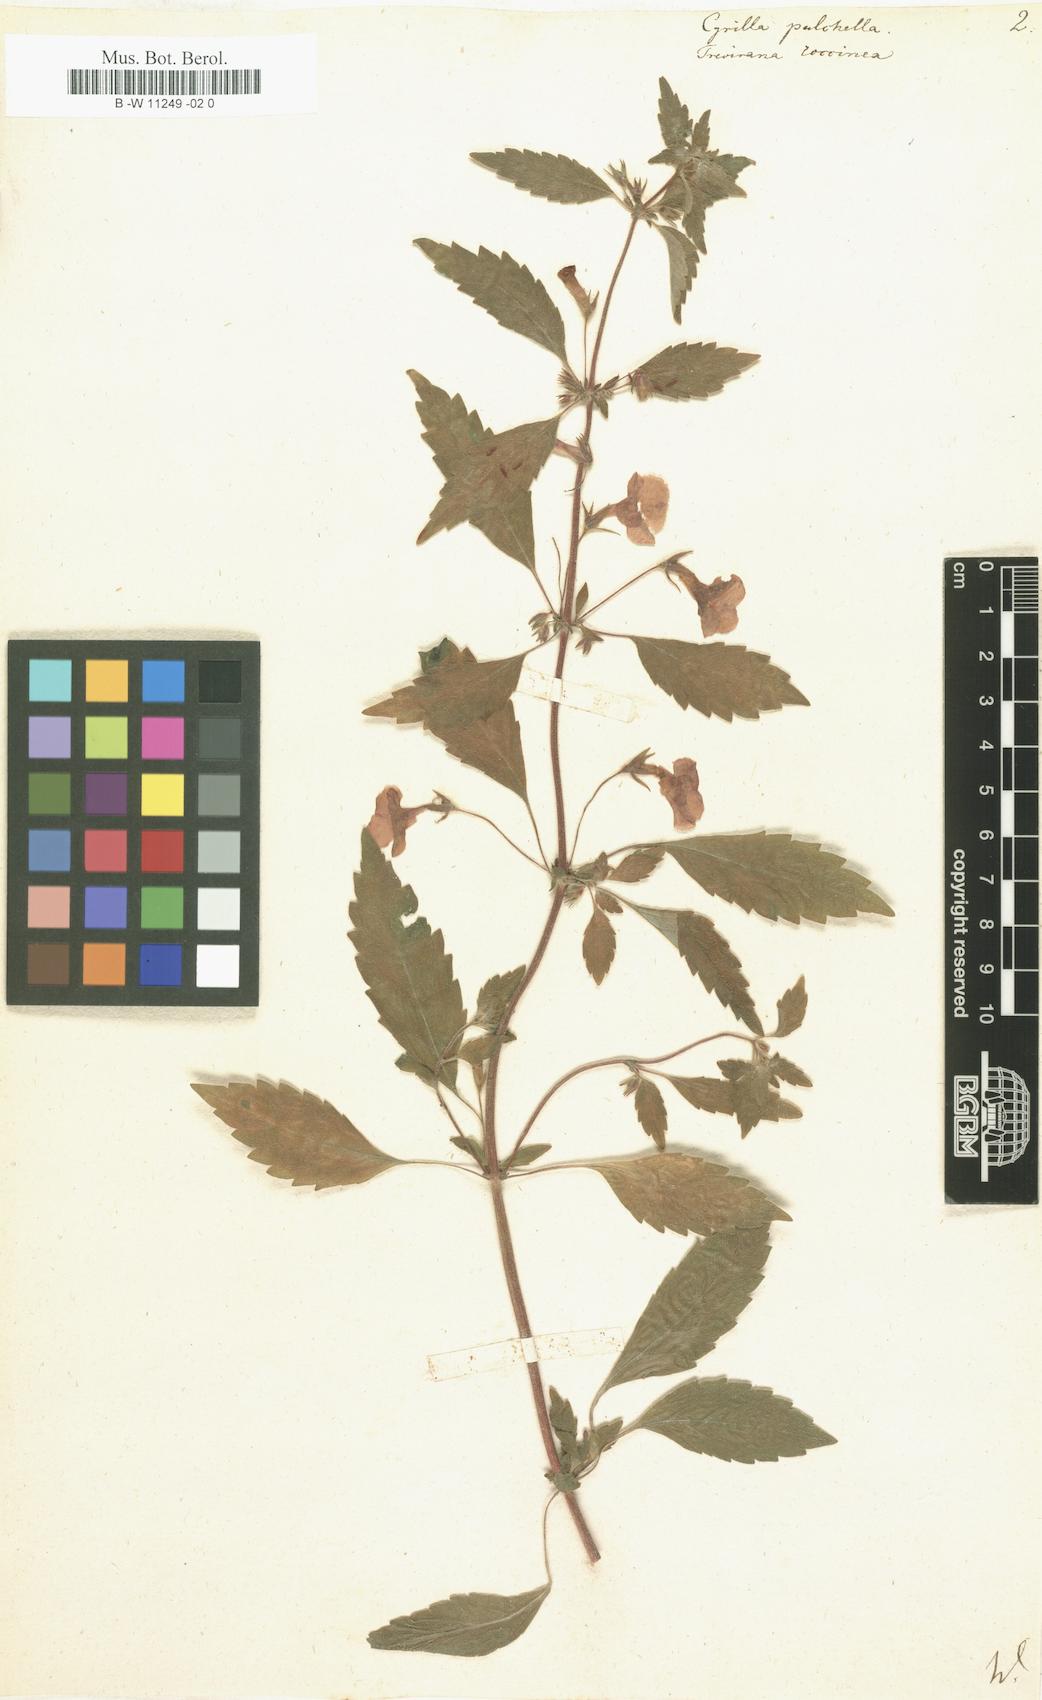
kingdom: Plantae
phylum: Tracheophyta
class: Magnoliopsida
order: Lamiales
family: Gesneriaceae
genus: Achimenes
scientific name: Achimenes erecta
